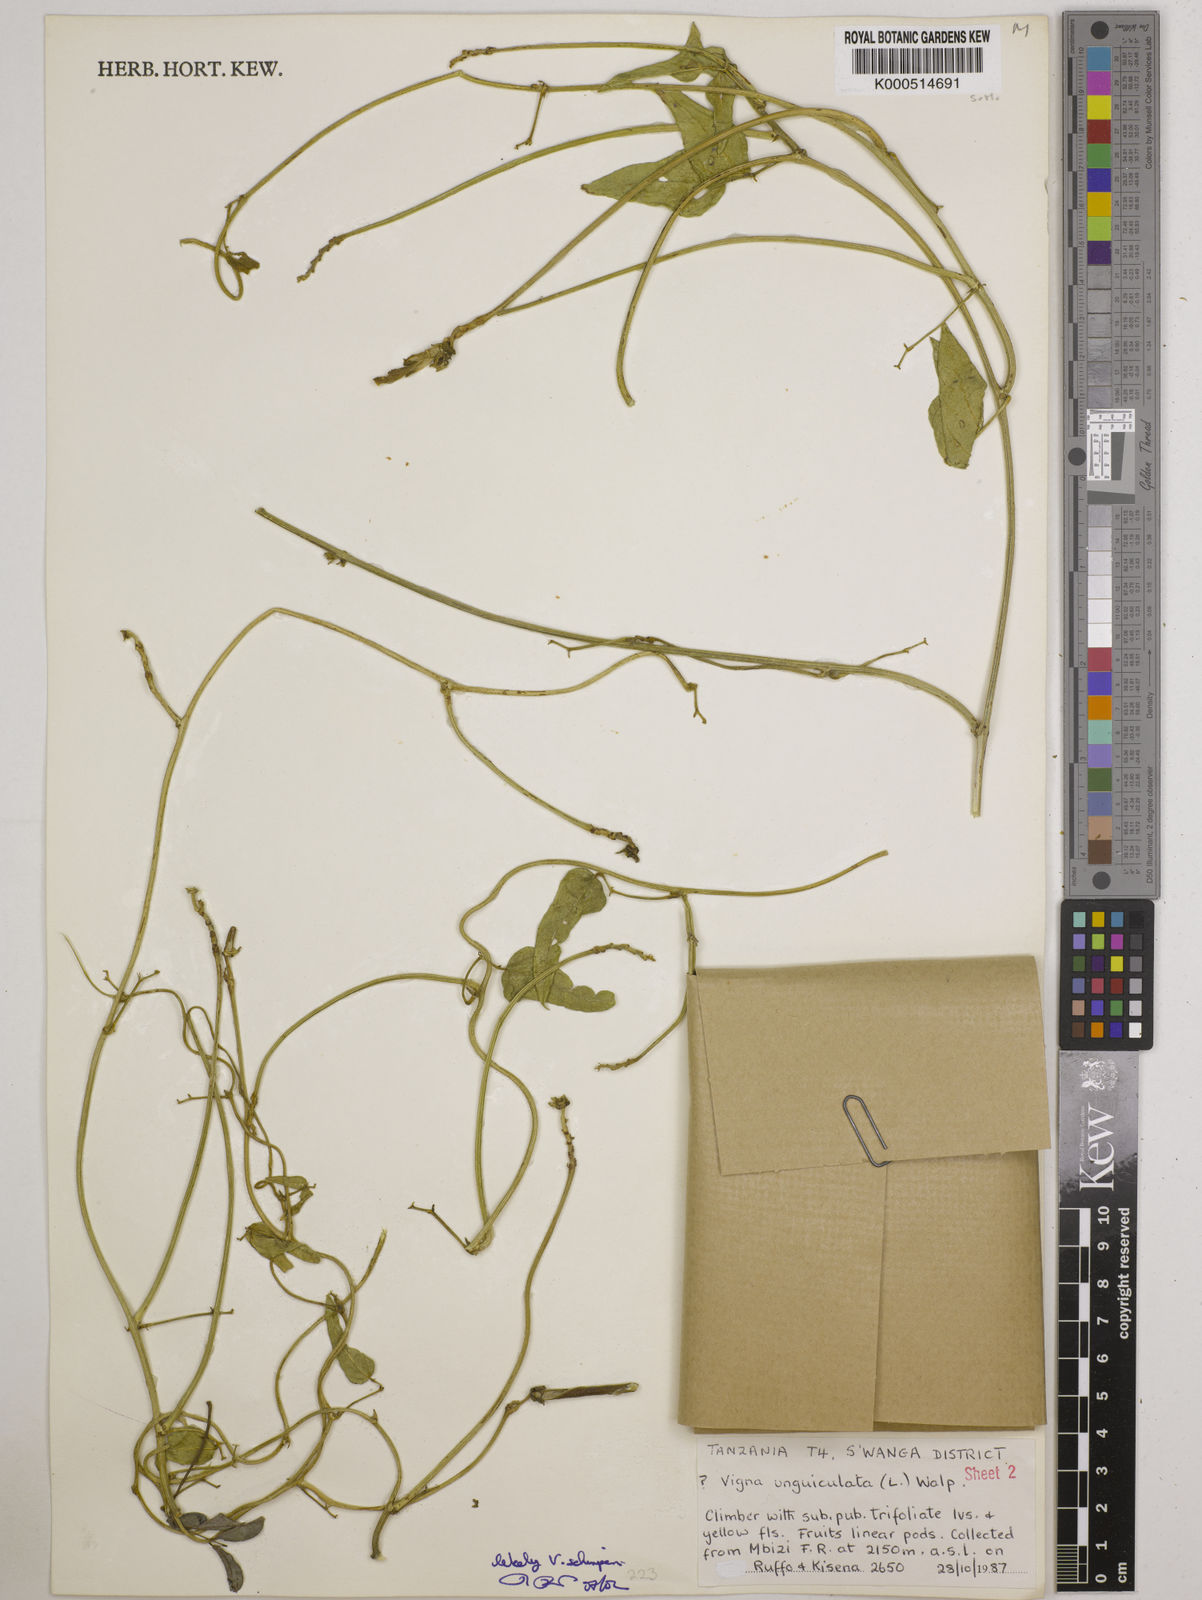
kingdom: Plantae
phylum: Tracheophyta
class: Magnoliopsida
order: Fabales
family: Fabaceae
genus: Vigna
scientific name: Vigna schimperi
